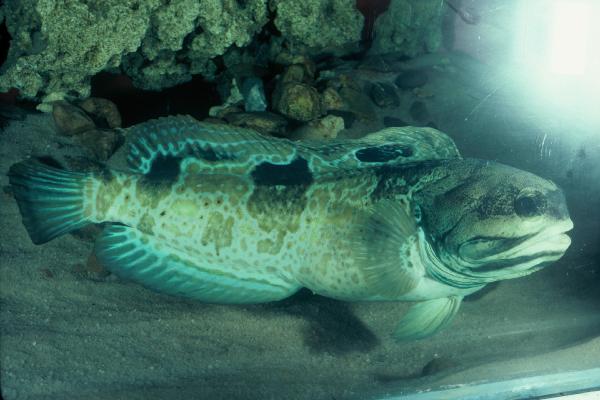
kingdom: Animalia
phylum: Chordata
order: Perciformes
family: Opistognathidae
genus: Opistognathus
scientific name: Opistognathus muscatensis
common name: Robust jawfish
